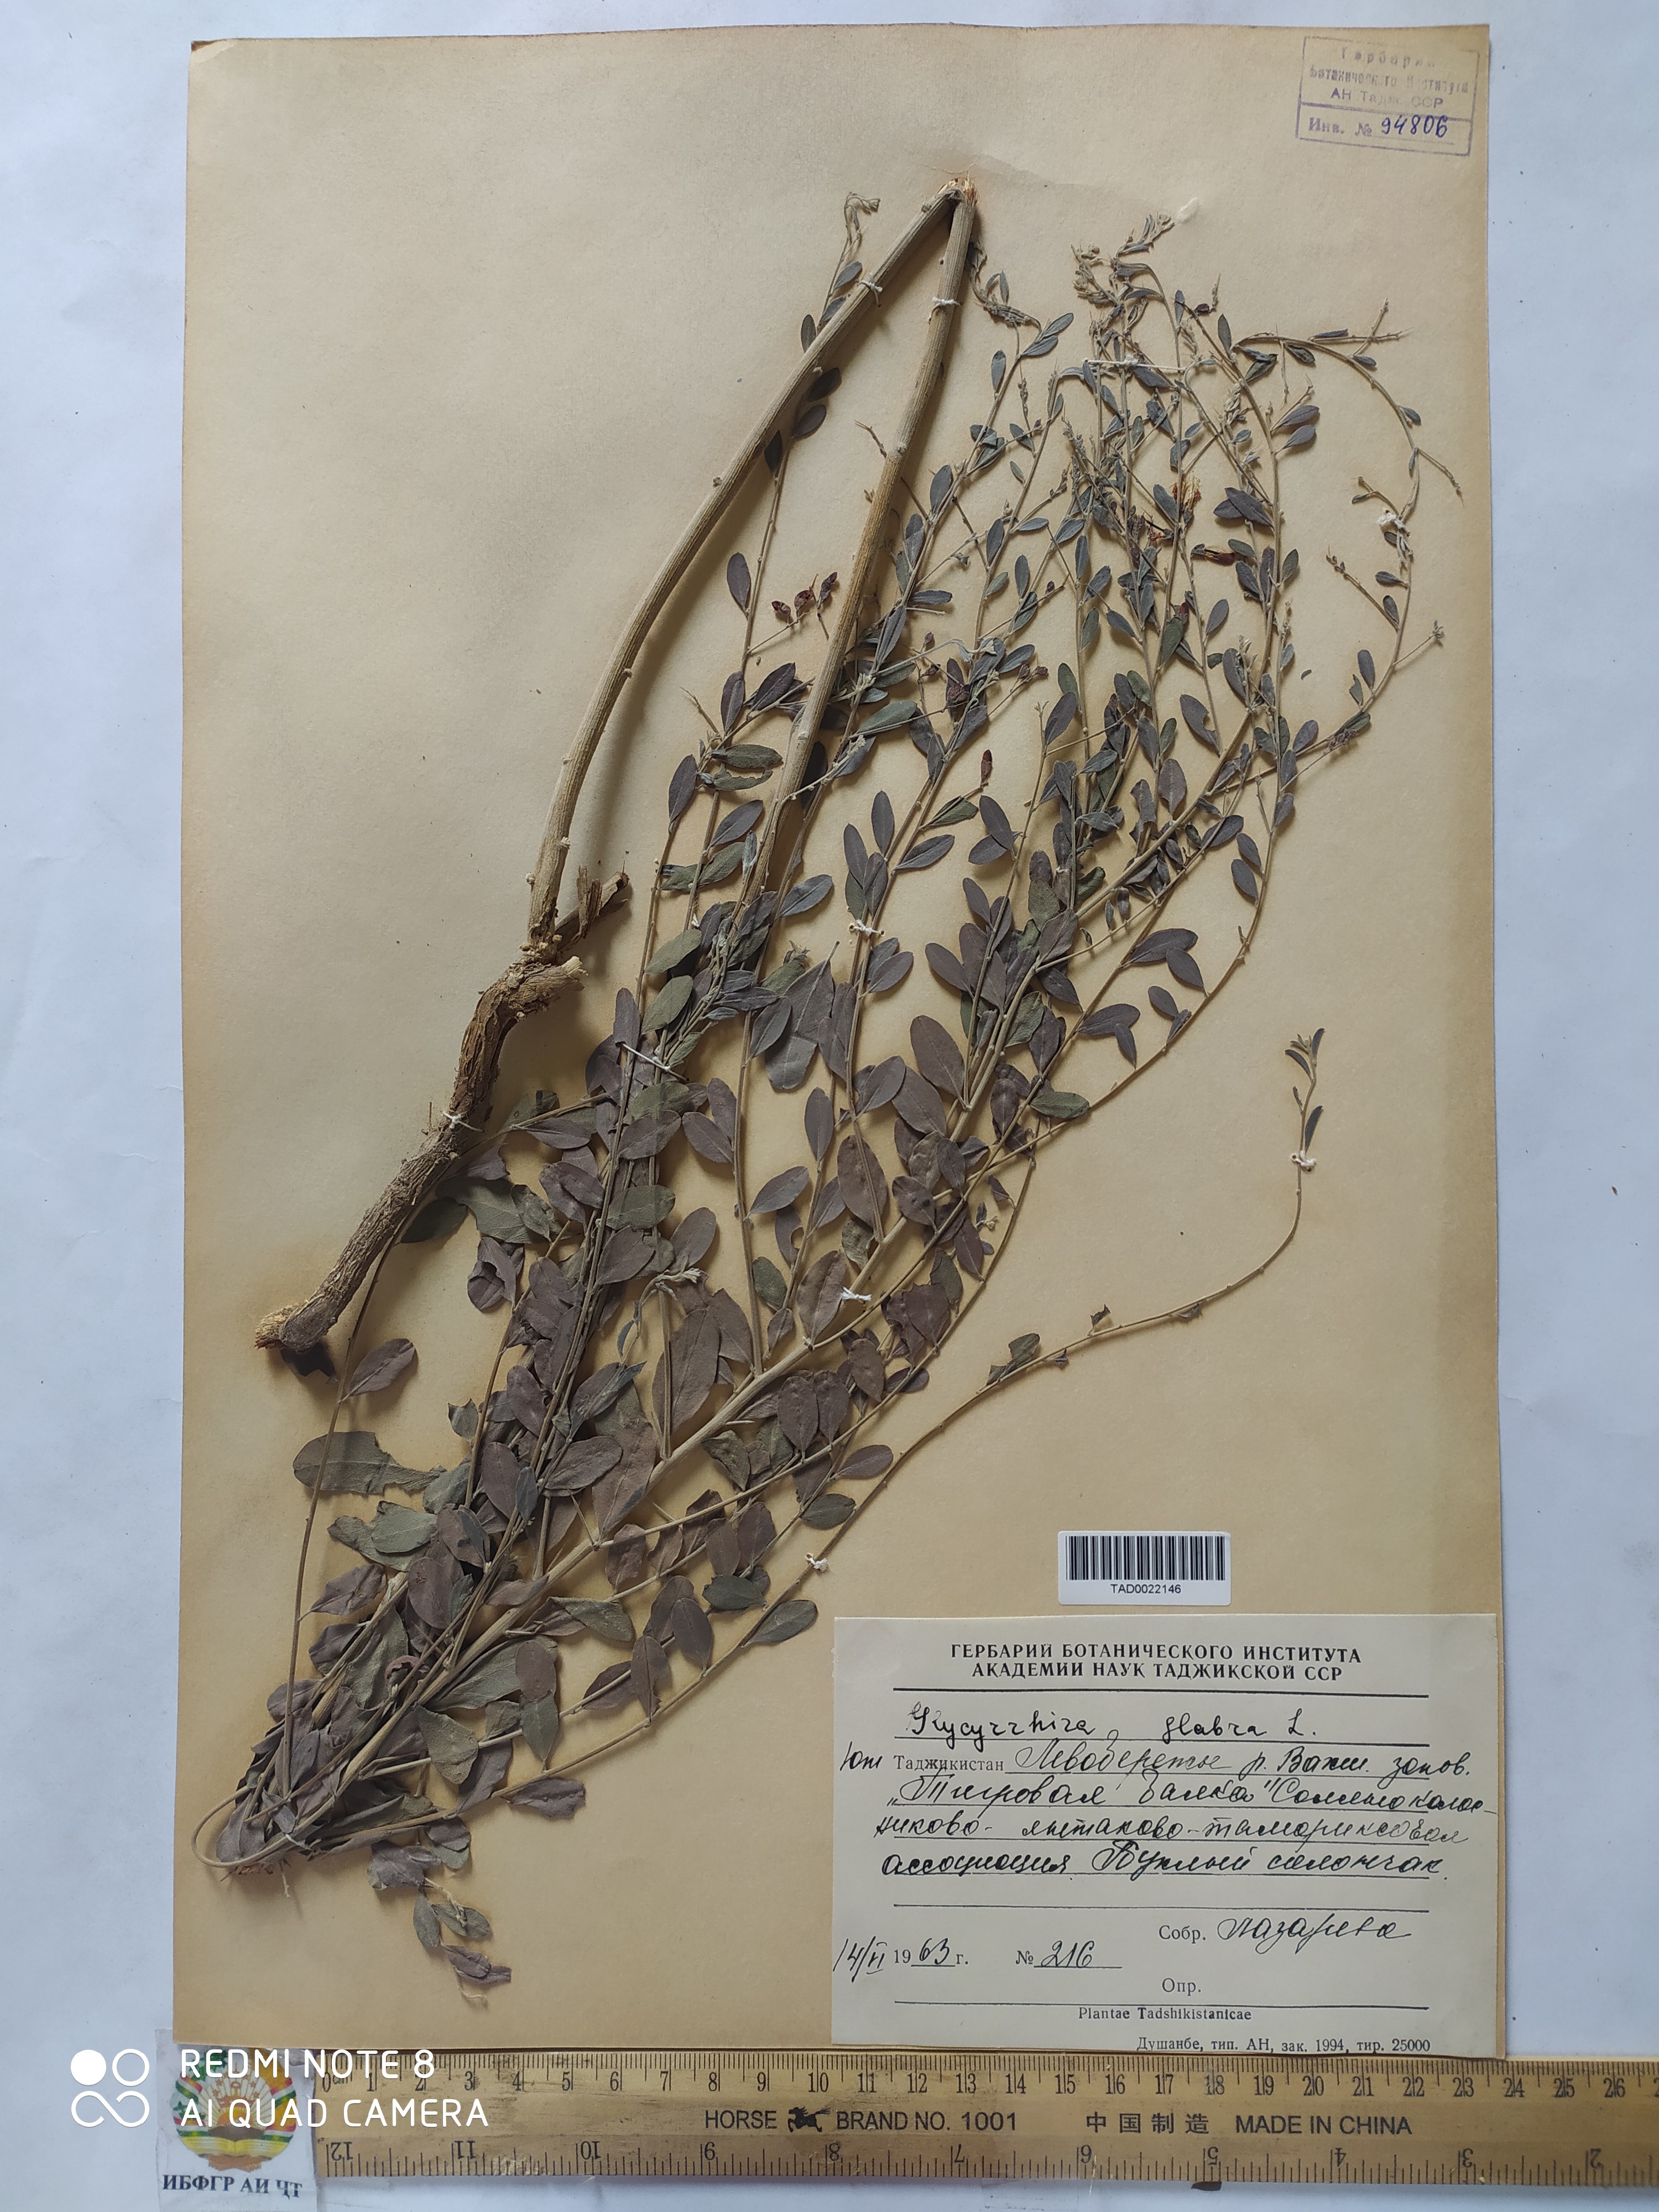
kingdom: Plantae
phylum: Tracheophyta
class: Magnoliopsida
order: Fabales
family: Fabaceae
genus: Glycyrrhiza
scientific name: Glycyrrhiza glabra
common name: Liquorice
